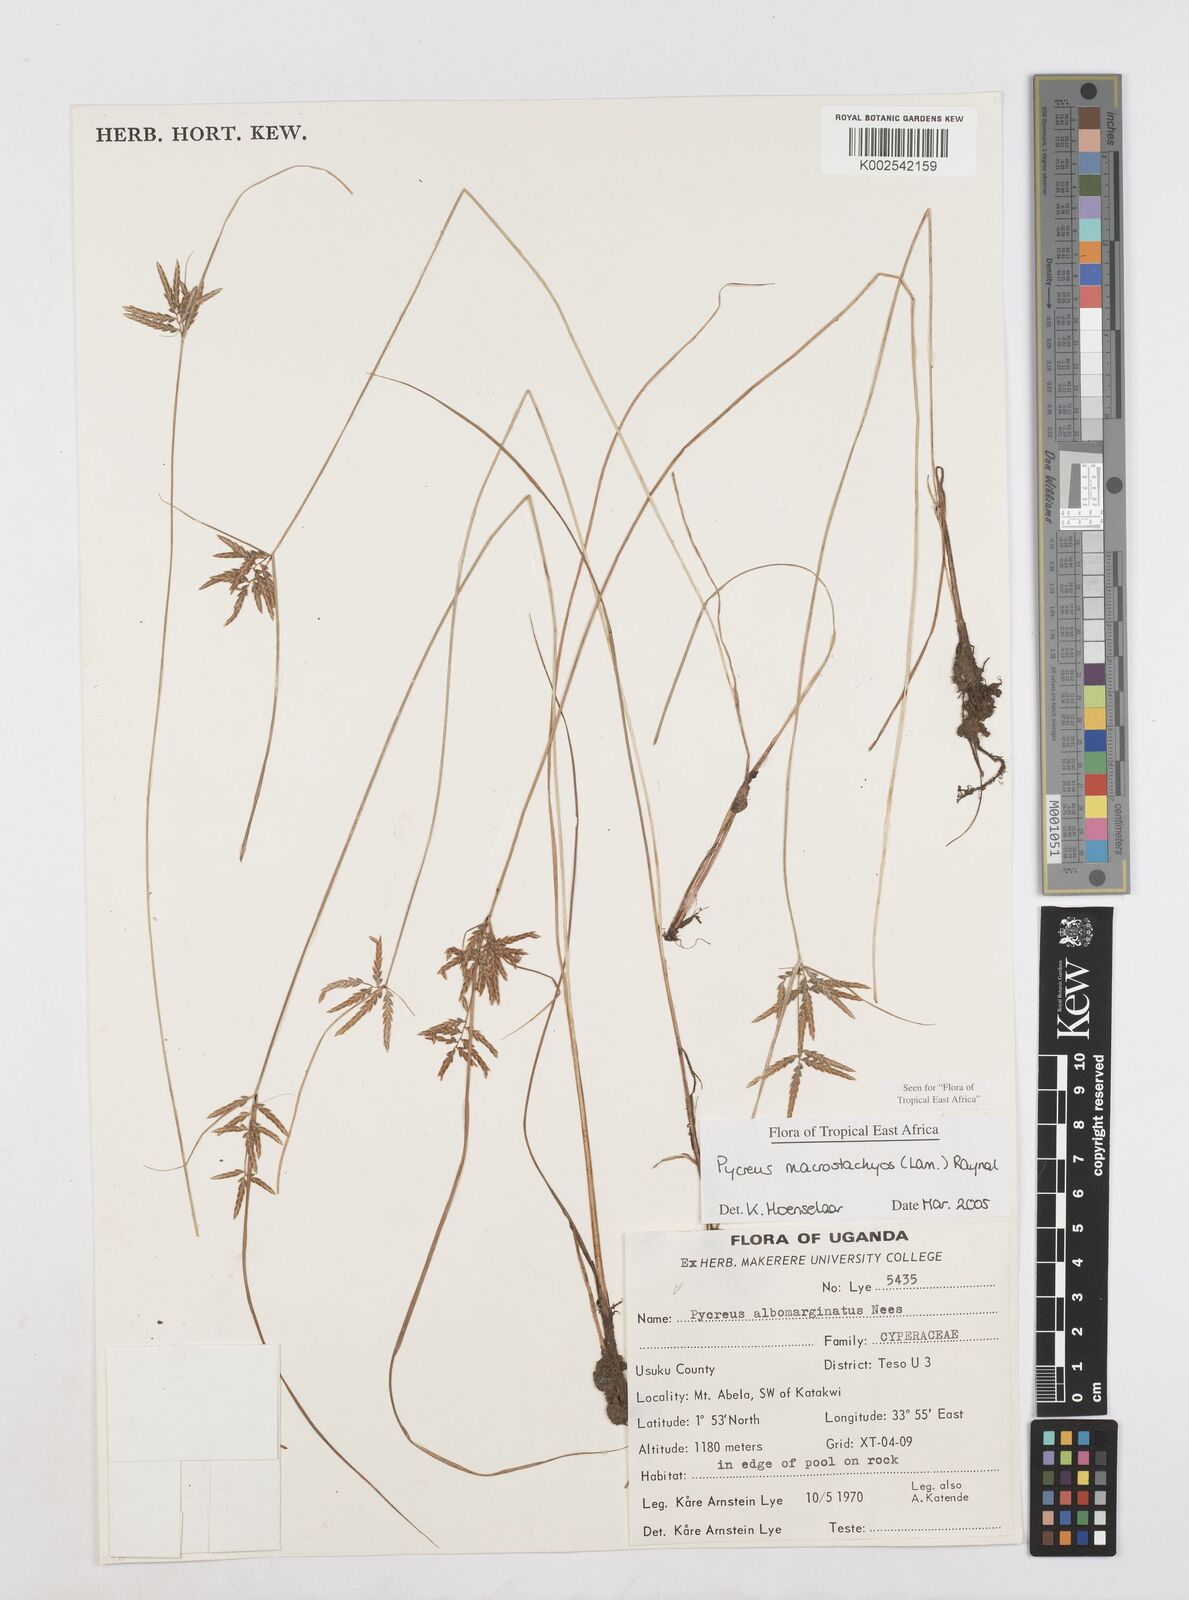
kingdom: Plantae
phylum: Tracheophyta
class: Liliopsida
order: Poales
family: Cyperaceae
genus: Cyperus
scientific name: Cyperus macrostachyos
